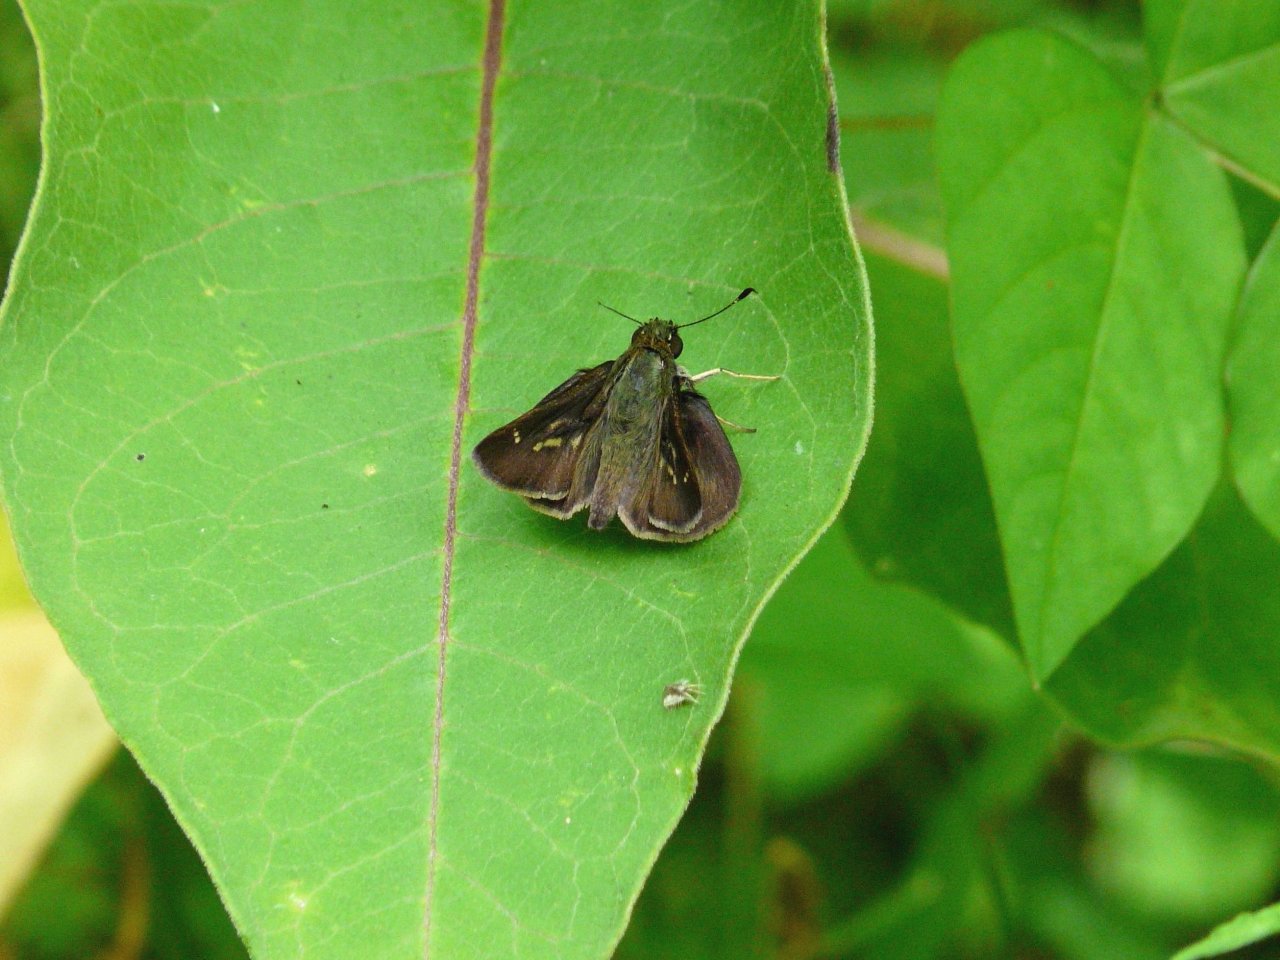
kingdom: Animalia
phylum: Arthropoda
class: Insecta
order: Lepidoptera
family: Hesperiidae
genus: Vernia
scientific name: Vernia verna
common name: Little Glassywing
